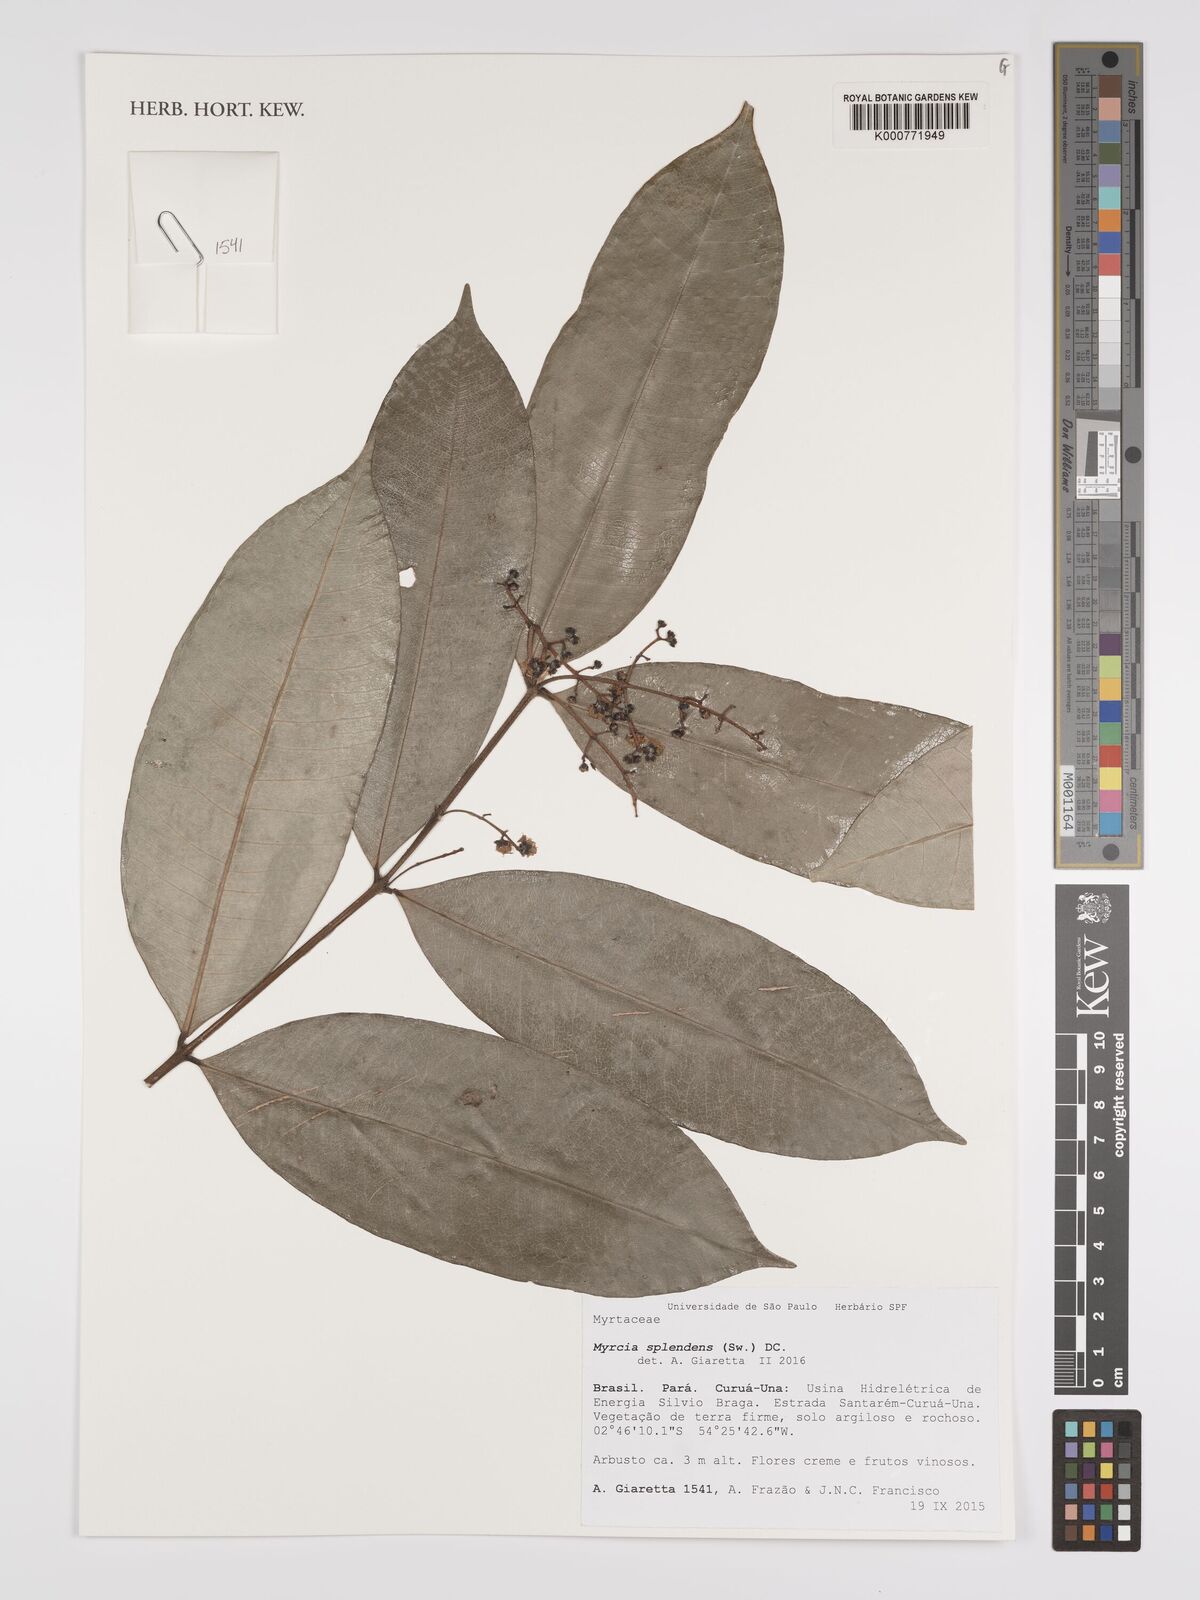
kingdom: Plantae
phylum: Tracheophyta
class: Magnoliopsida
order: Myrtales
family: Myrtaceae
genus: Myrcia
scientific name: Myrcia splendens
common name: Surinam cherry
